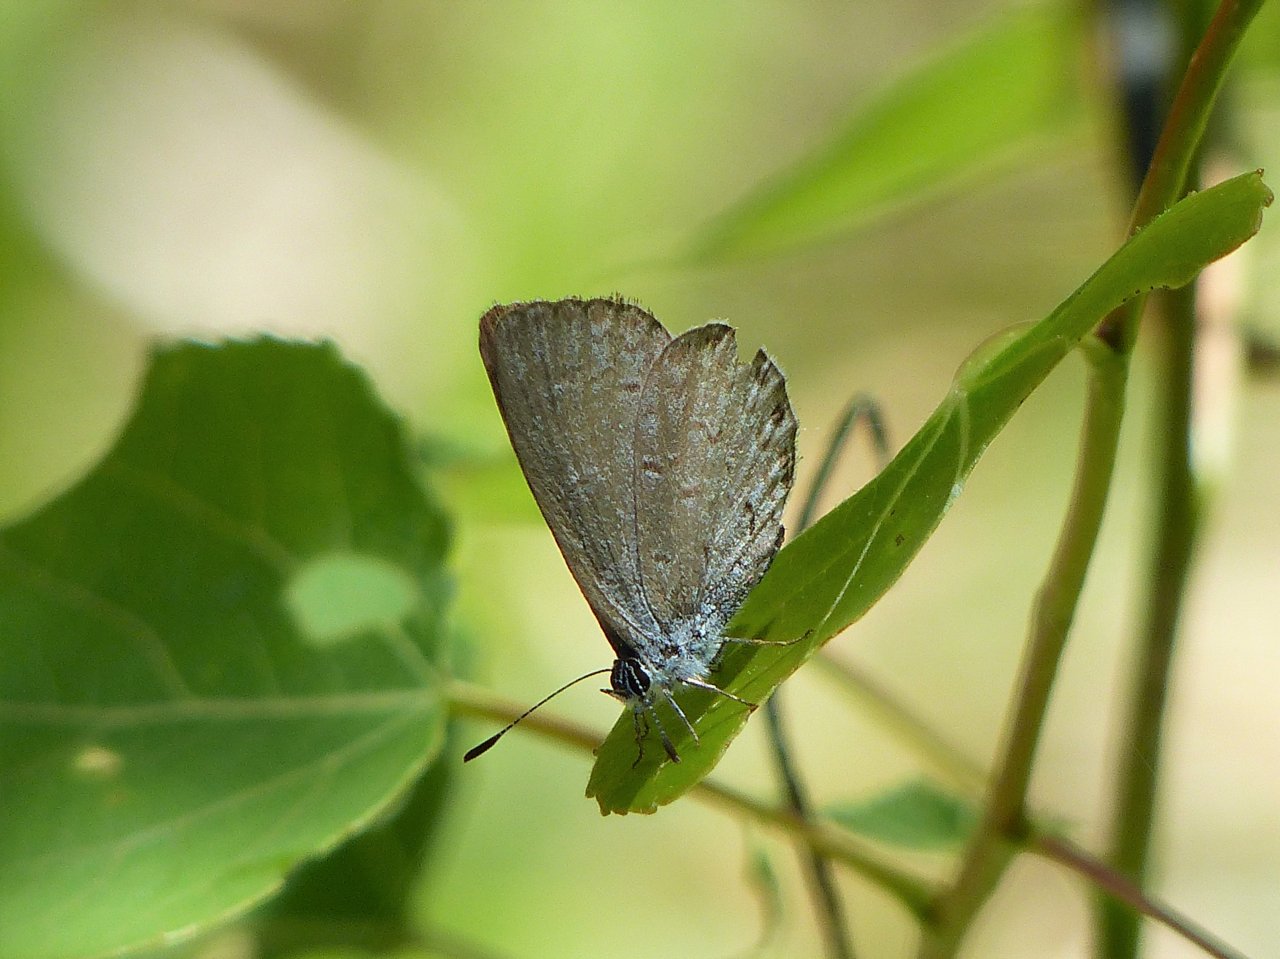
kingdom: Animalia
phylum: Arthropoda
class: Insecta
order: Lepidoptera
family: Lycaenidae
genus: Celastrina
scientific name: Celastrina lucia
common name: Northern Spring Azure
